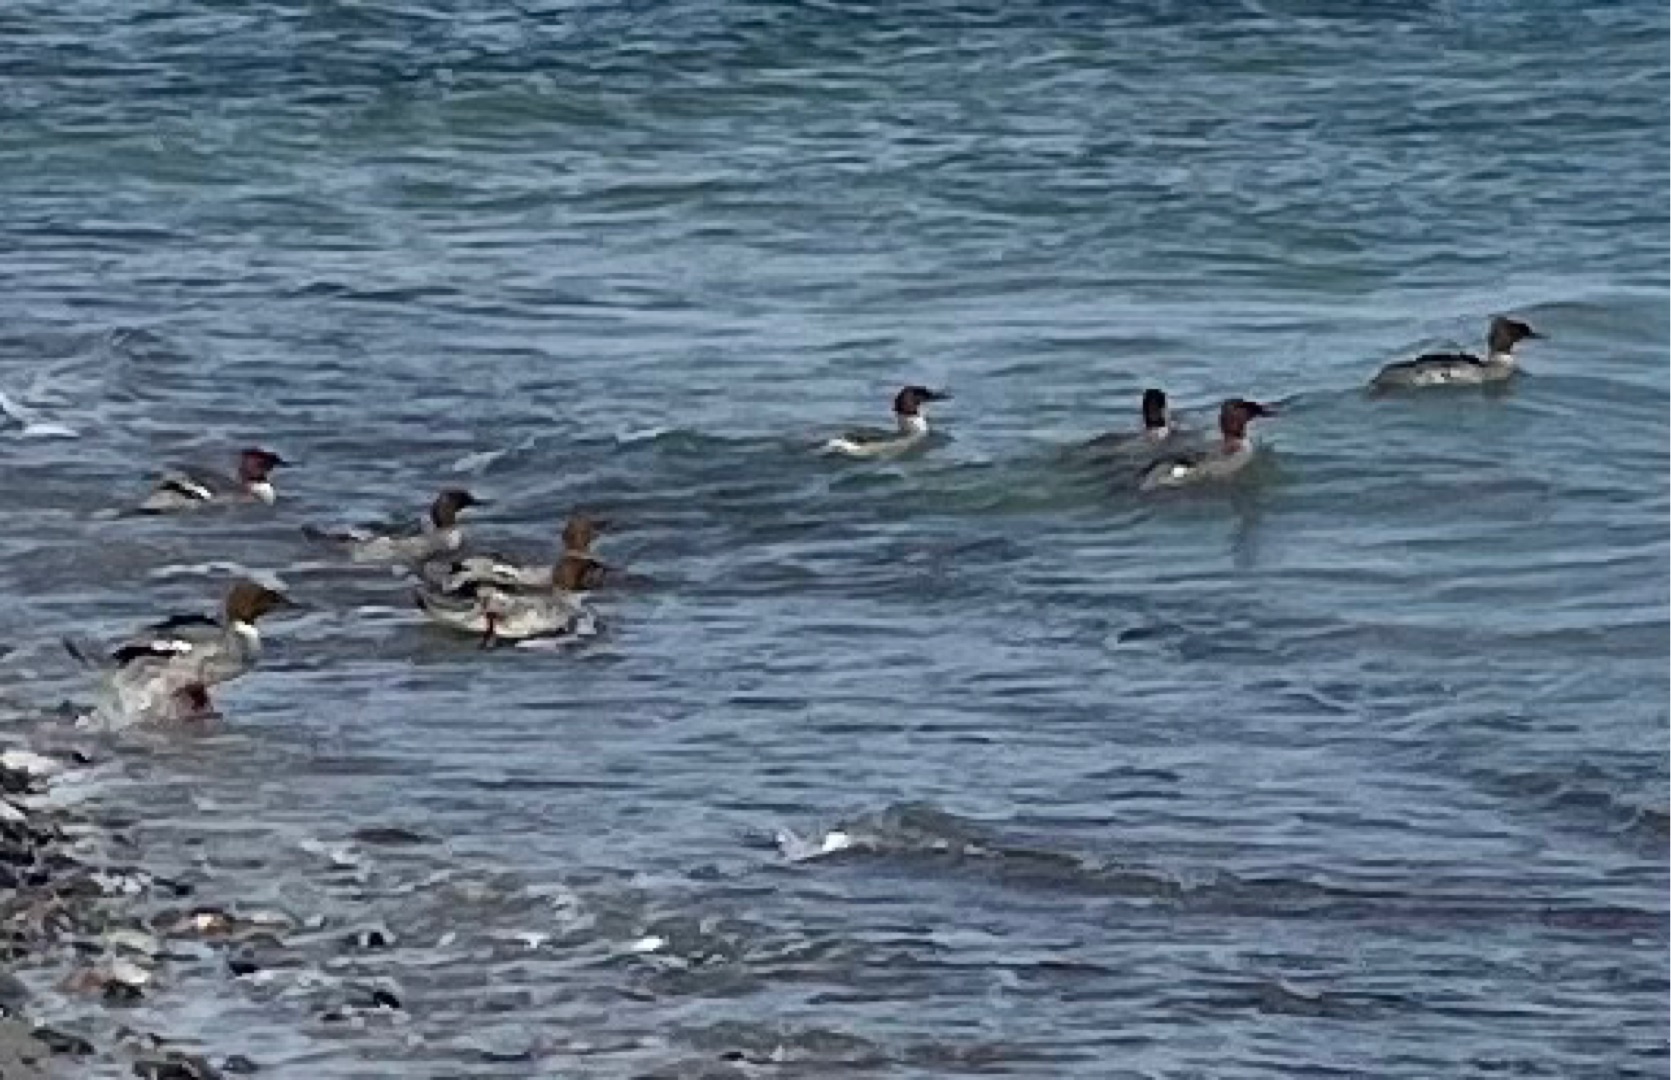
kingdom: Animalia
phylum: Chordata
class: Aves
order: Anseriformes
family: Anatidae
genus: Mergus
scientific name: Mergus merganser
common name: Stor skallesluger
